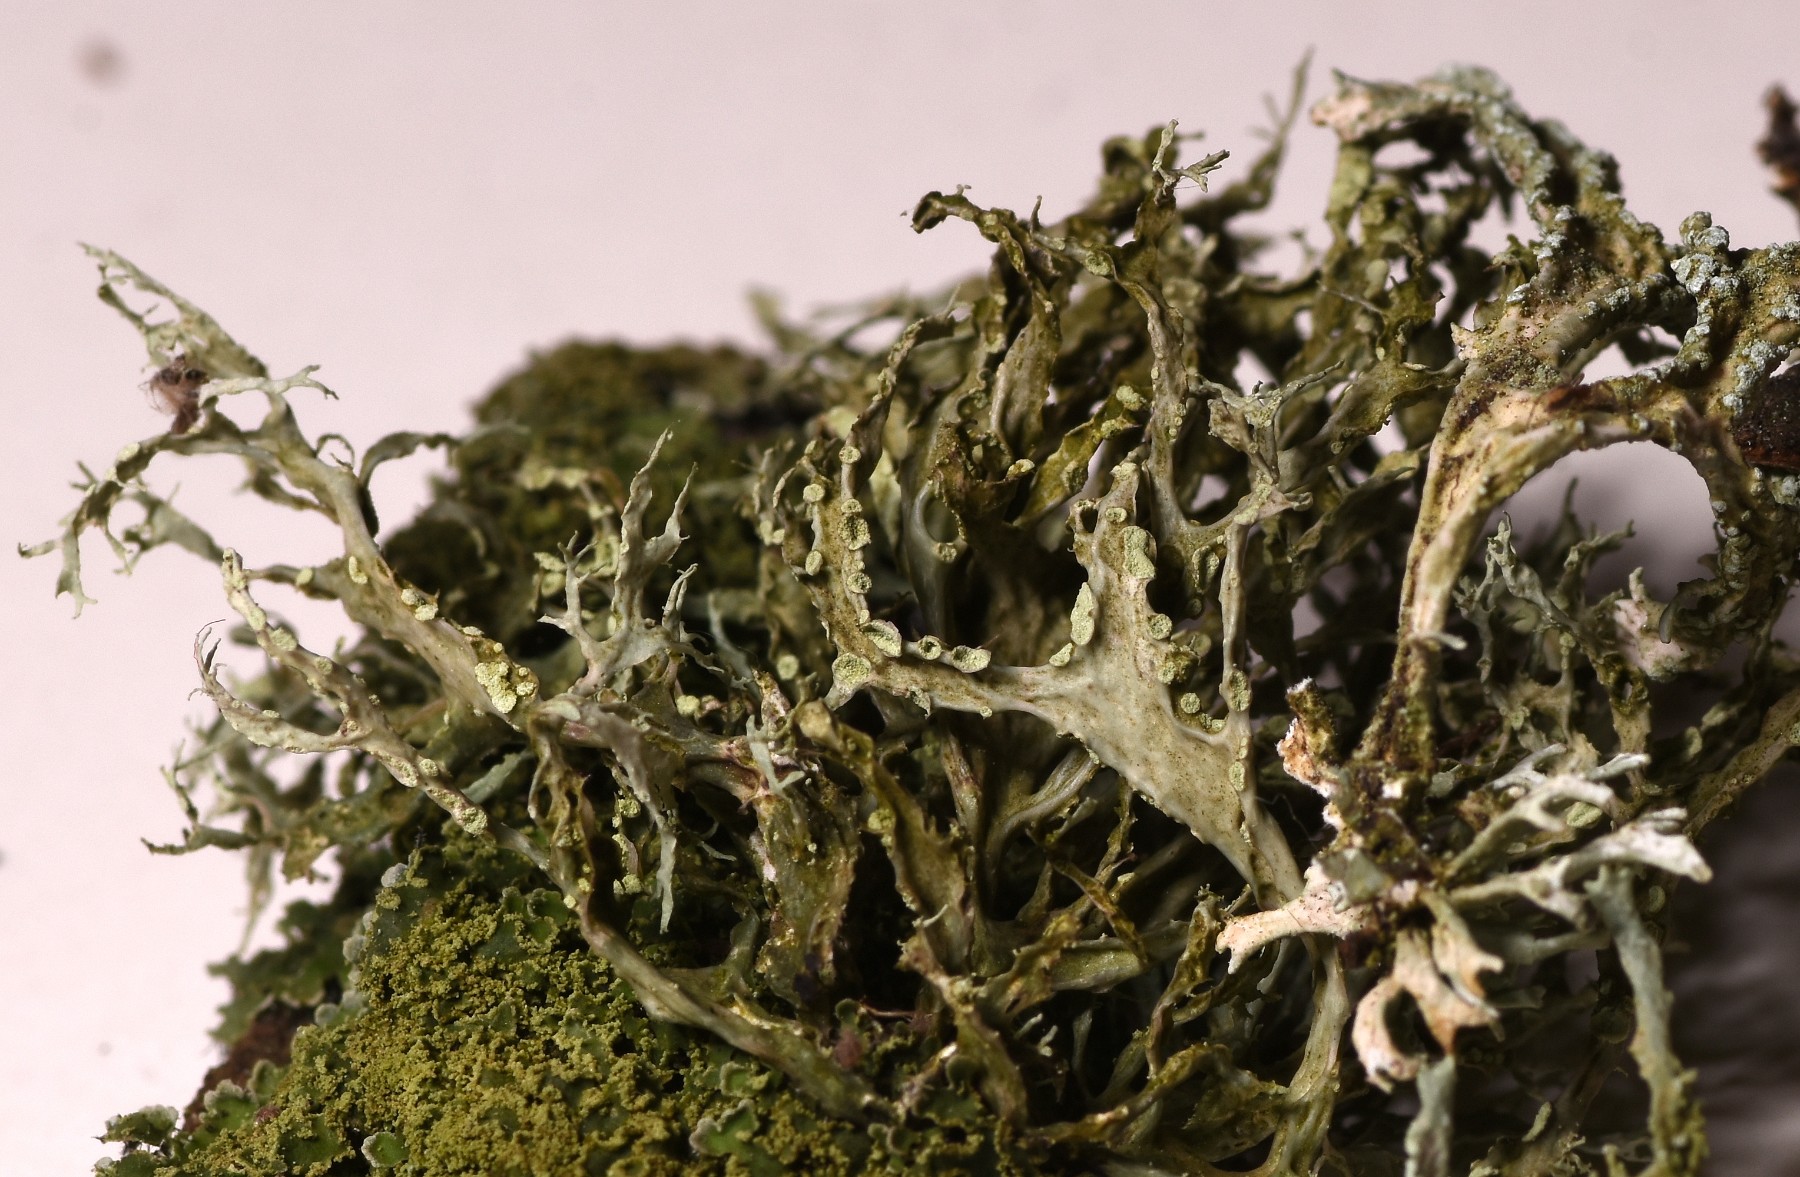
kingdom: Fungi
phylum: Ascomycota
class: Lecanoromycetes
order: Lecanorales
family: Ramalinaceae
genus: Ramalina
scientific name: Ramalina farinacea
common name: melet grenlav
